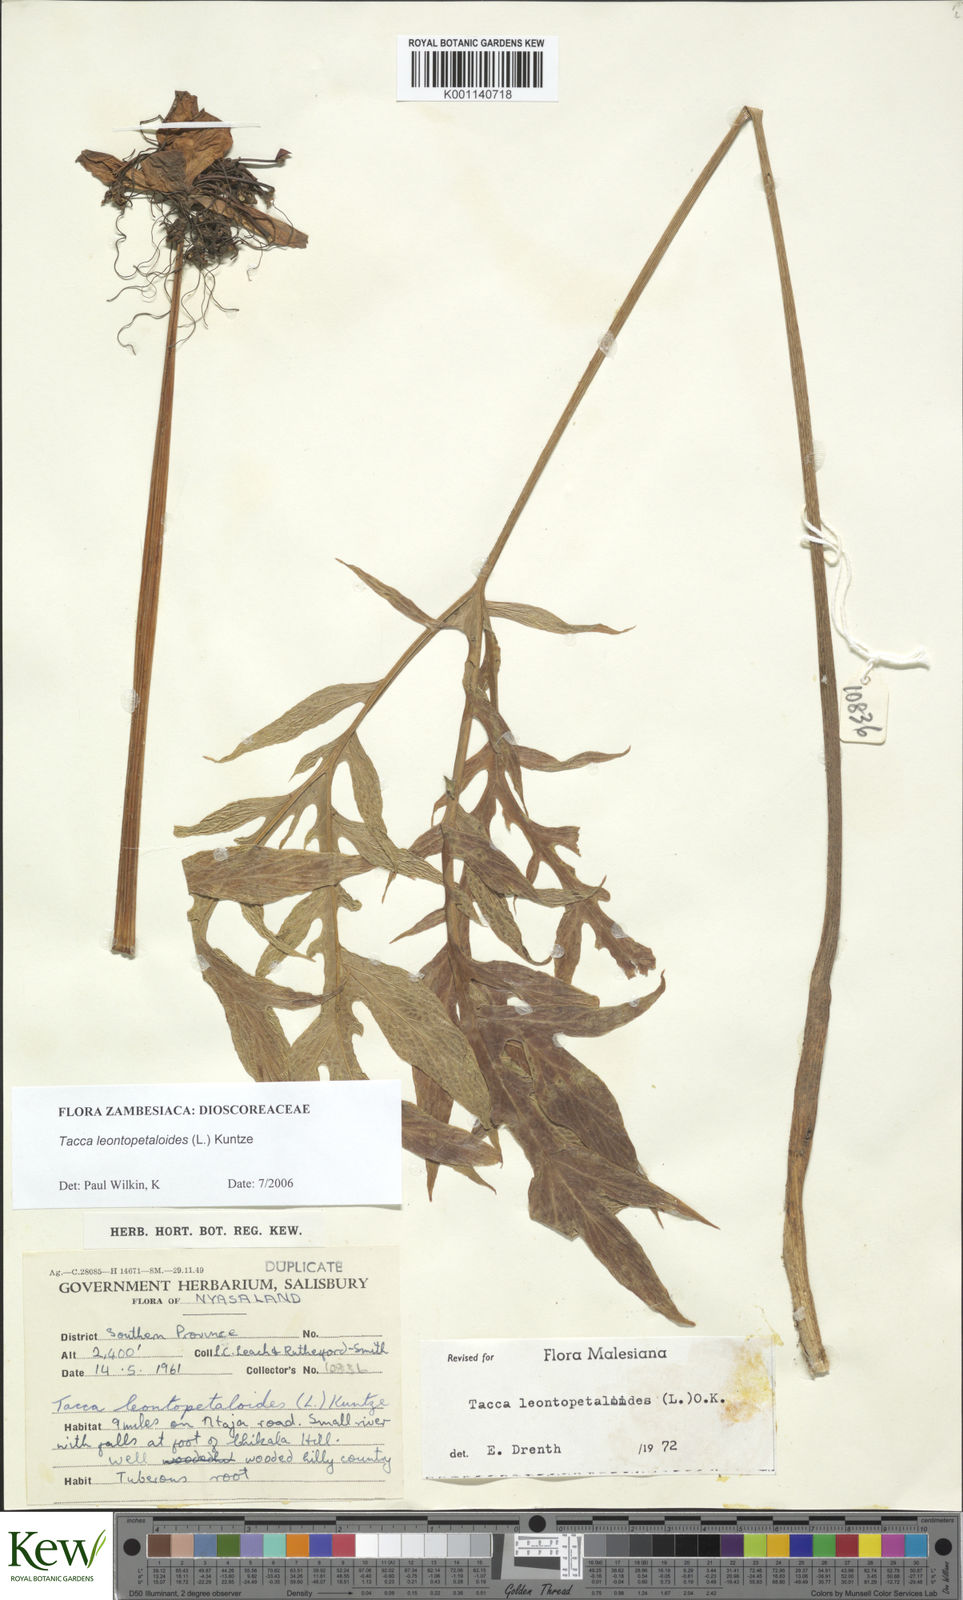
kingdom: Plantae
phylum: Tracheophyta
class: Liliopsida
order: Dioscoreales
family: Dioscoreaceae
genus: Tacca
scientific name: Tacca leontopetaloides
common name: Arrowroot
